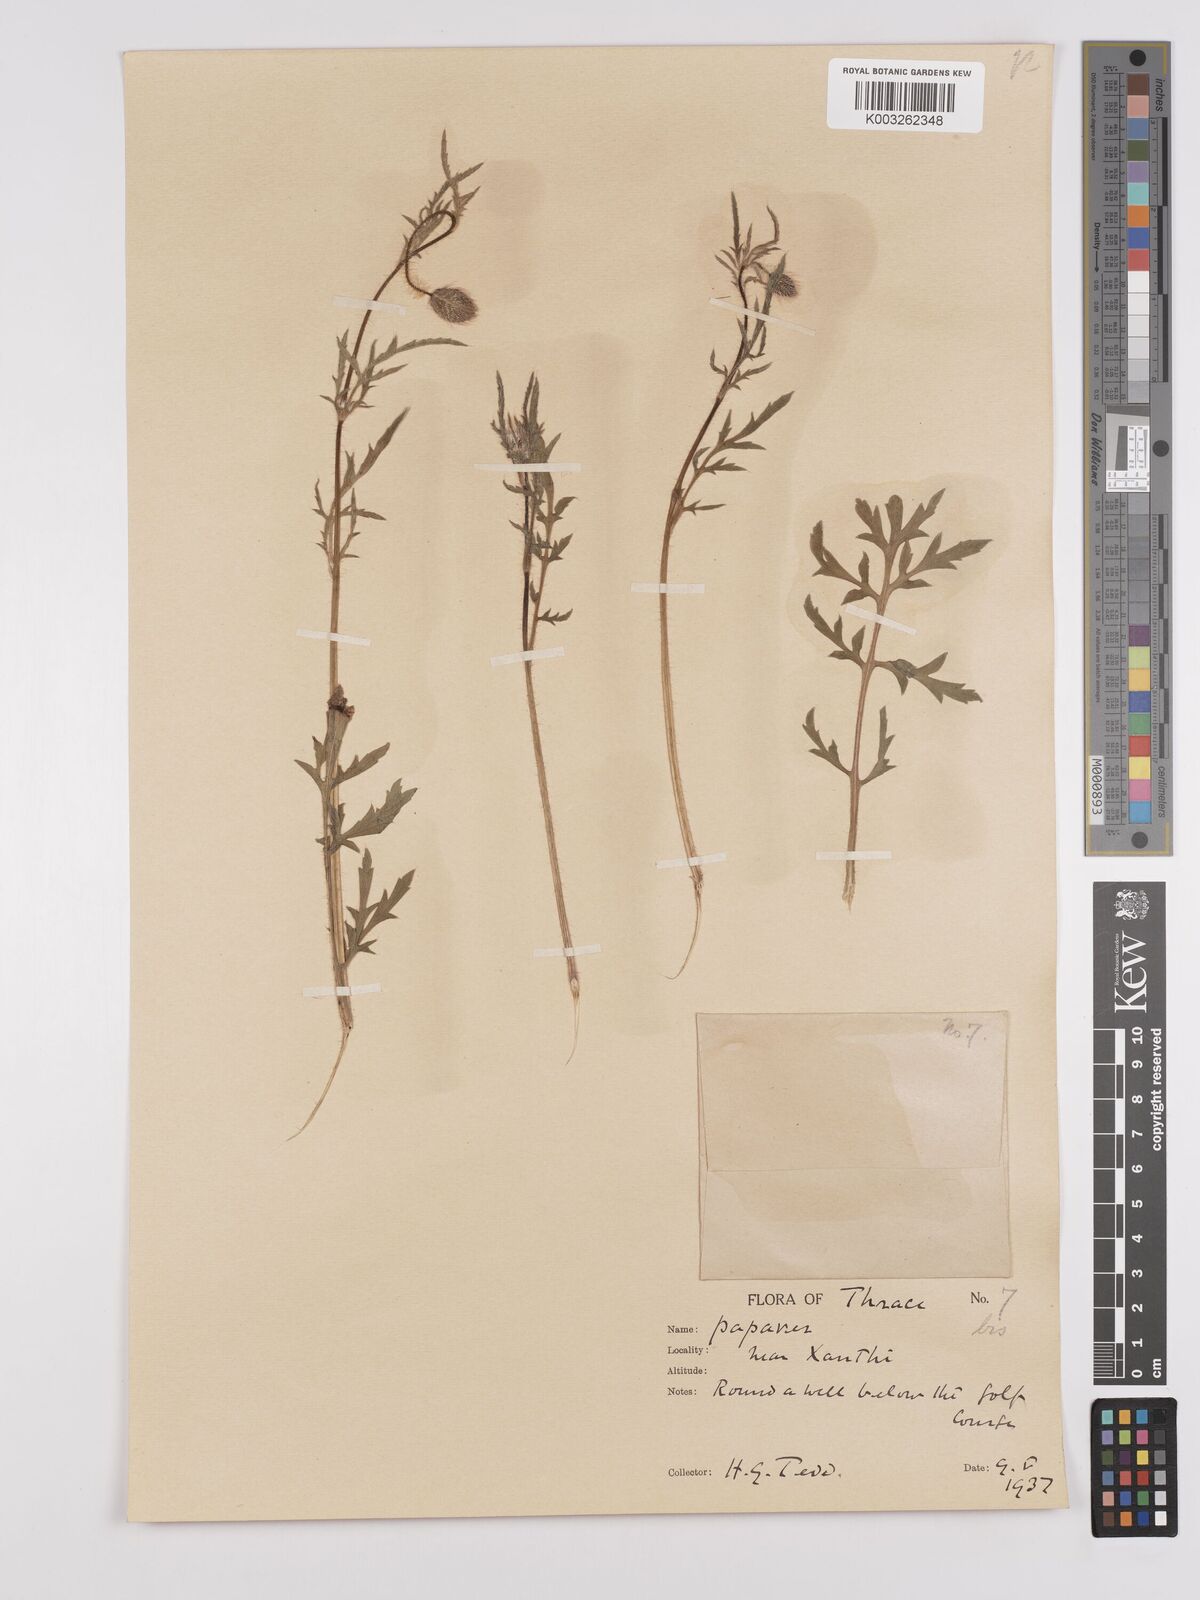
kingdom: Plantae
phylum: Tracheophyta
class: Magnoliopsida
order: Ranunculales
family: Papaveraceae
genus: Papaver
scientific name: Papaver rhoeas
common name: Corn poppy
